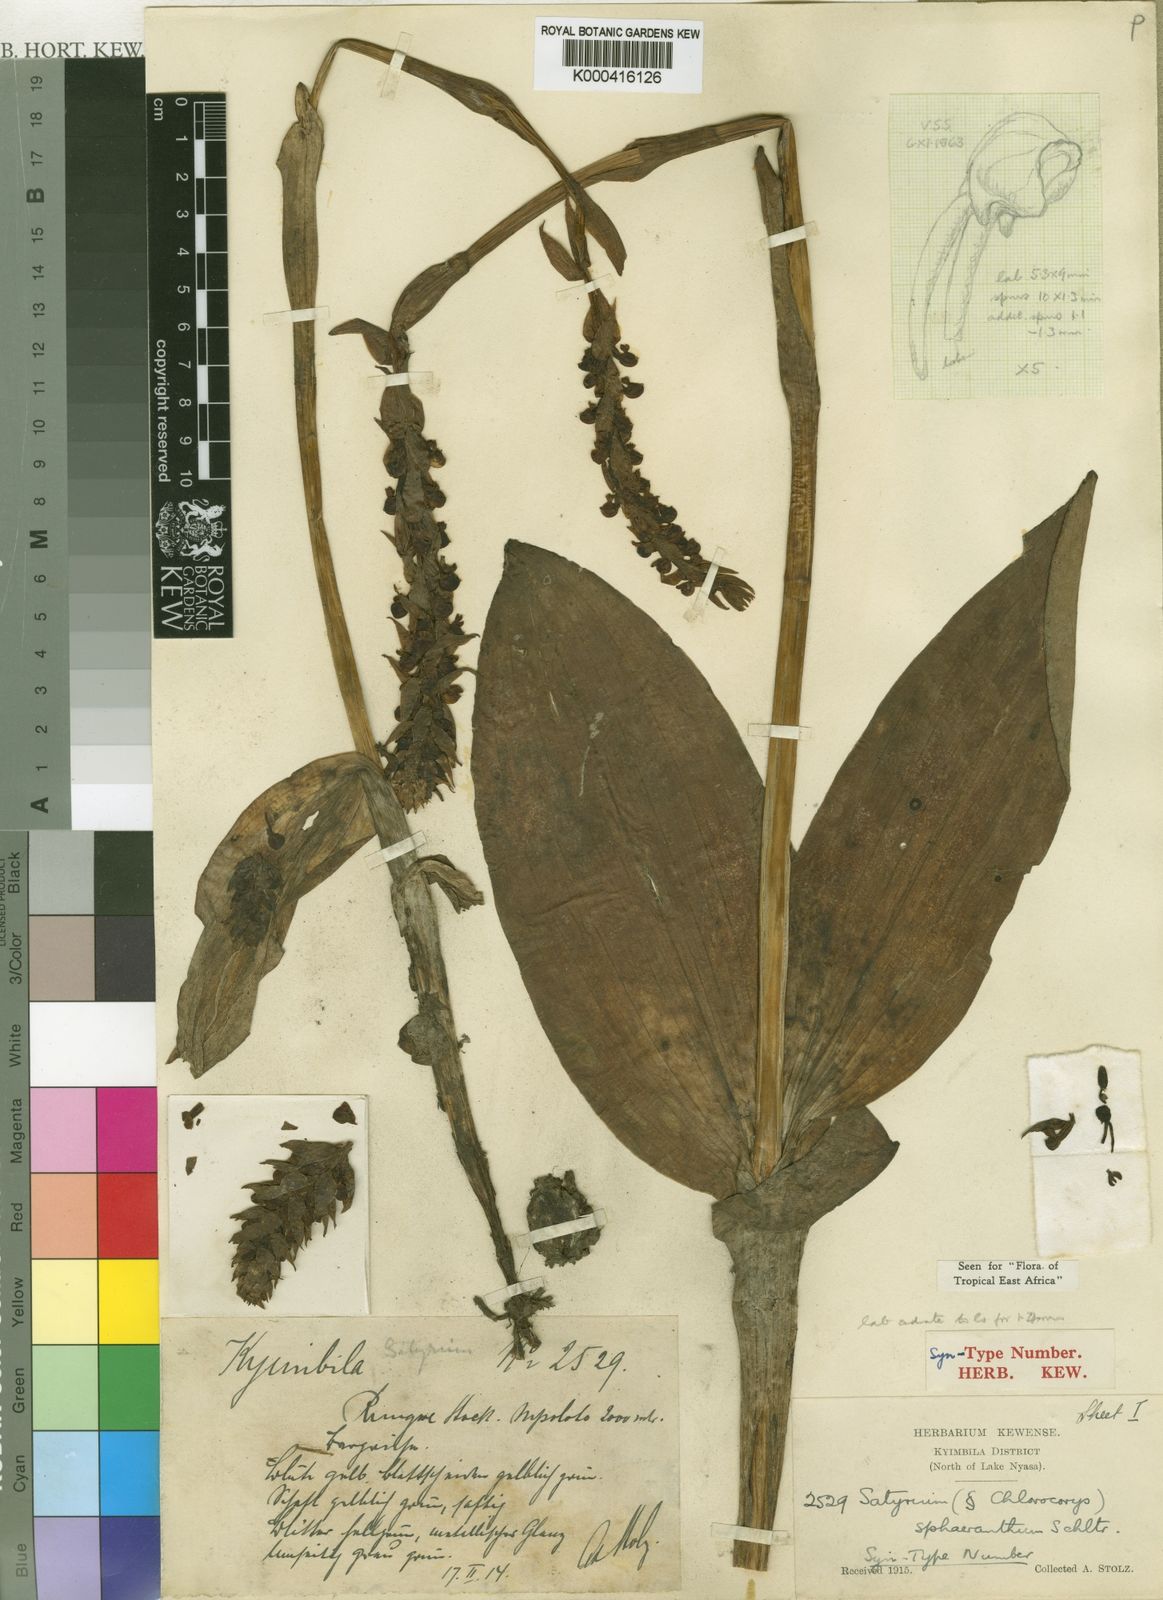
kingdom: Plantae
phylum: Tracheophyta
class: Liliopsida
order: Asparagales
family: Orchidaceae
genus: Satyrium
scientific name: Satyrium sphaeranthum
